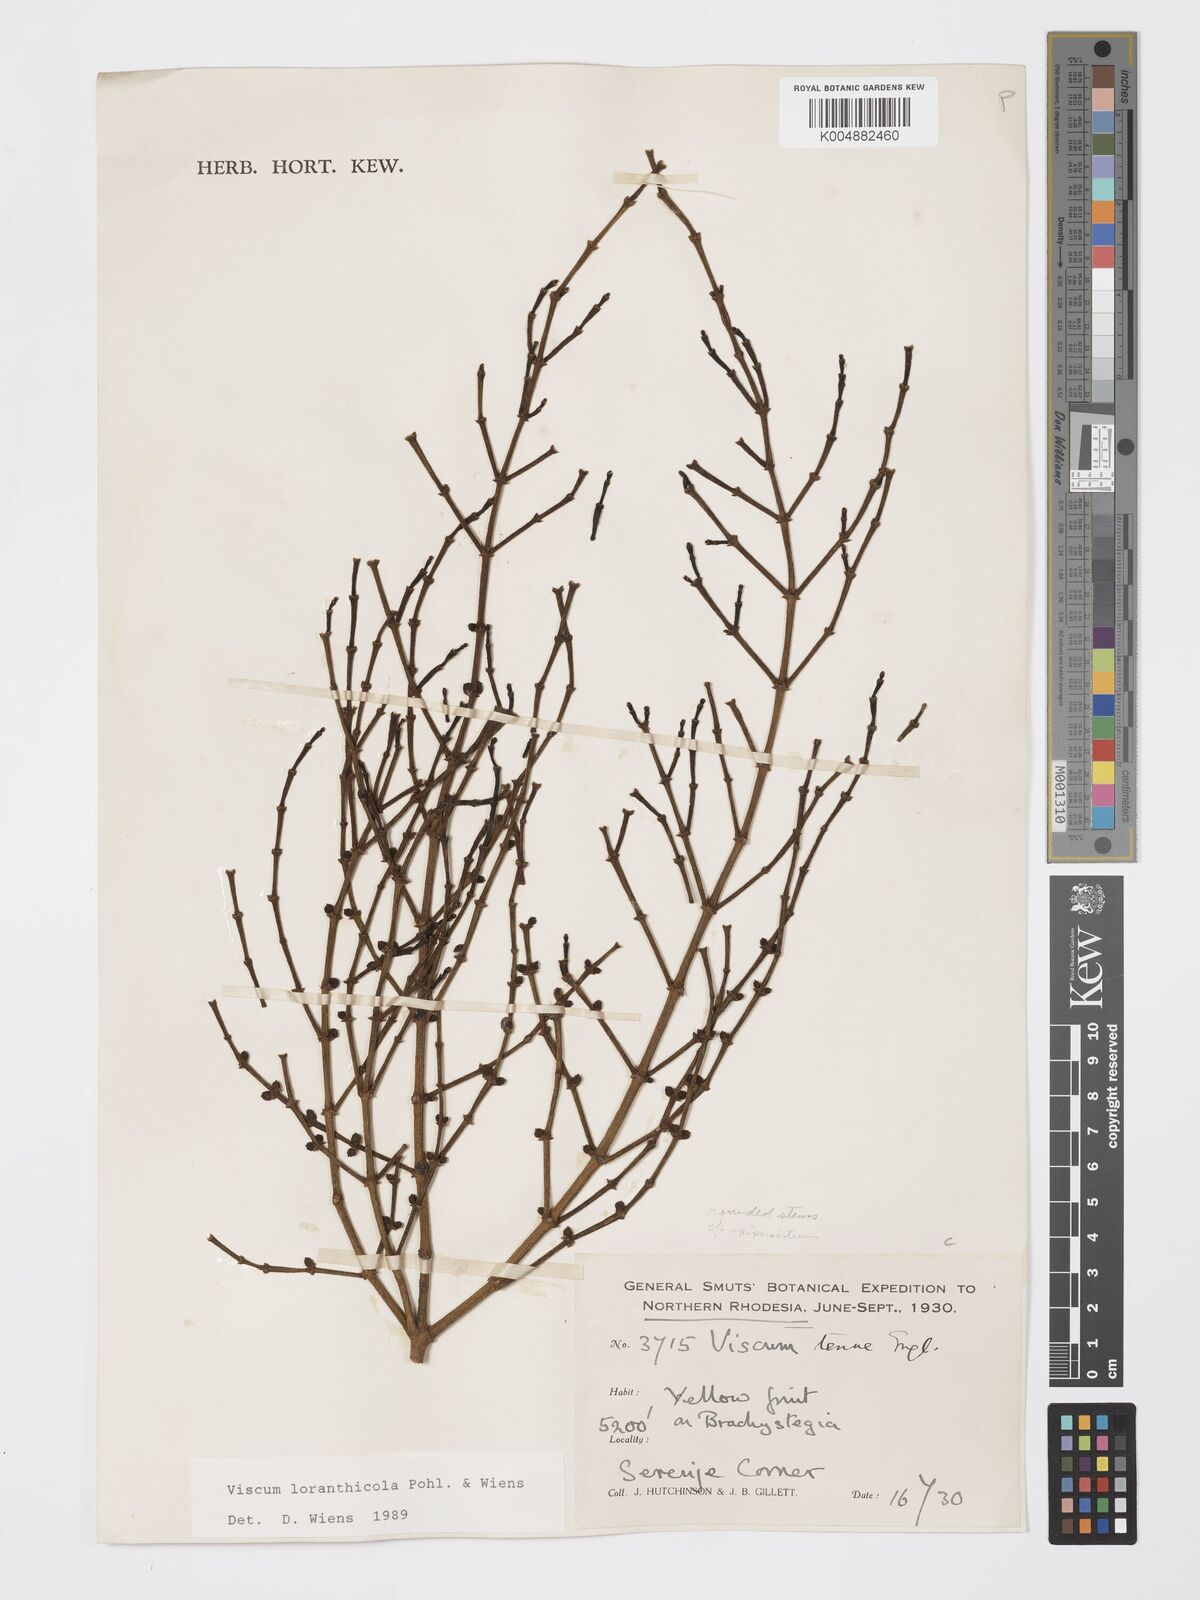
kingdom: Plantae
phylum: Tracheophyta
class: Magnoliopsida
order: Santalales
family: Viscaceae
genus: Viscum
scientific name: Viscum loranthicola
